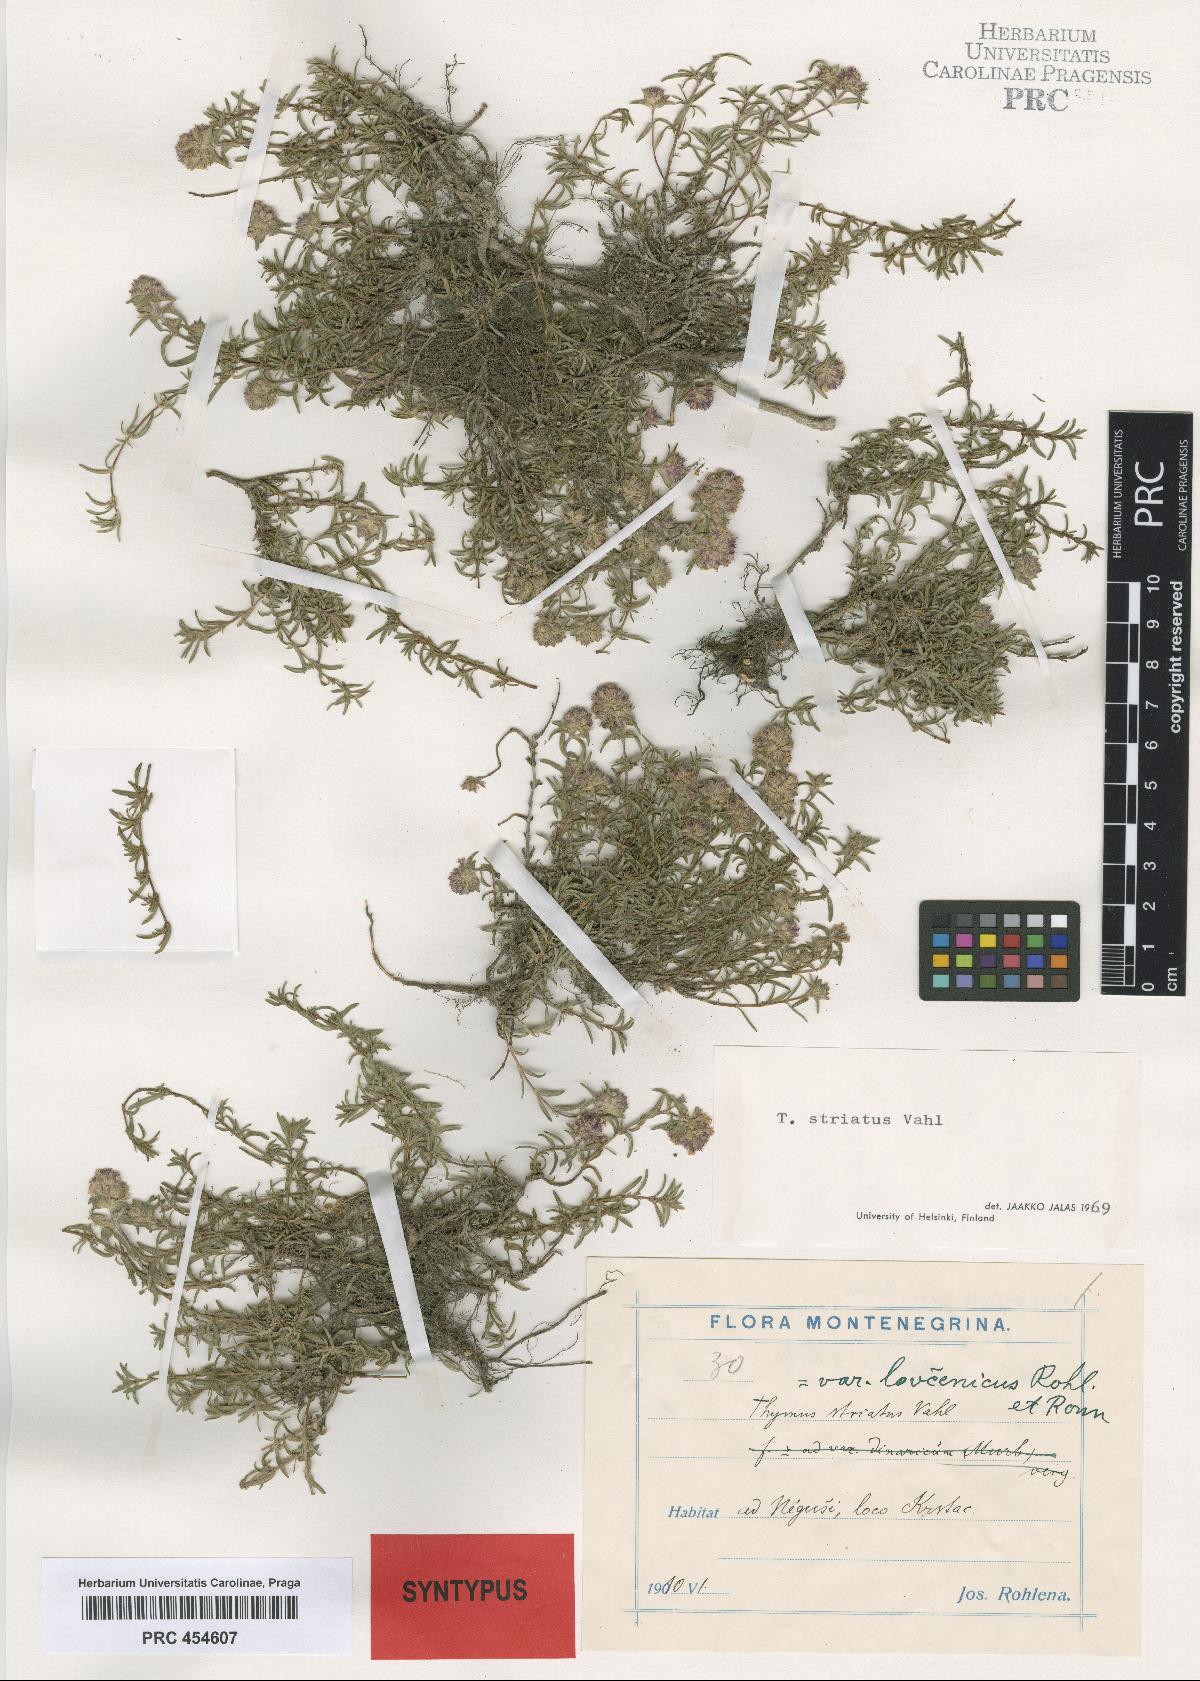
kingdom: Plantae
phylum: Tracheophyta
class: Magnoliopsida
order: Lamiales
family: Lamiaceae
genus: Thymus
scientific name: Thymus striatus
